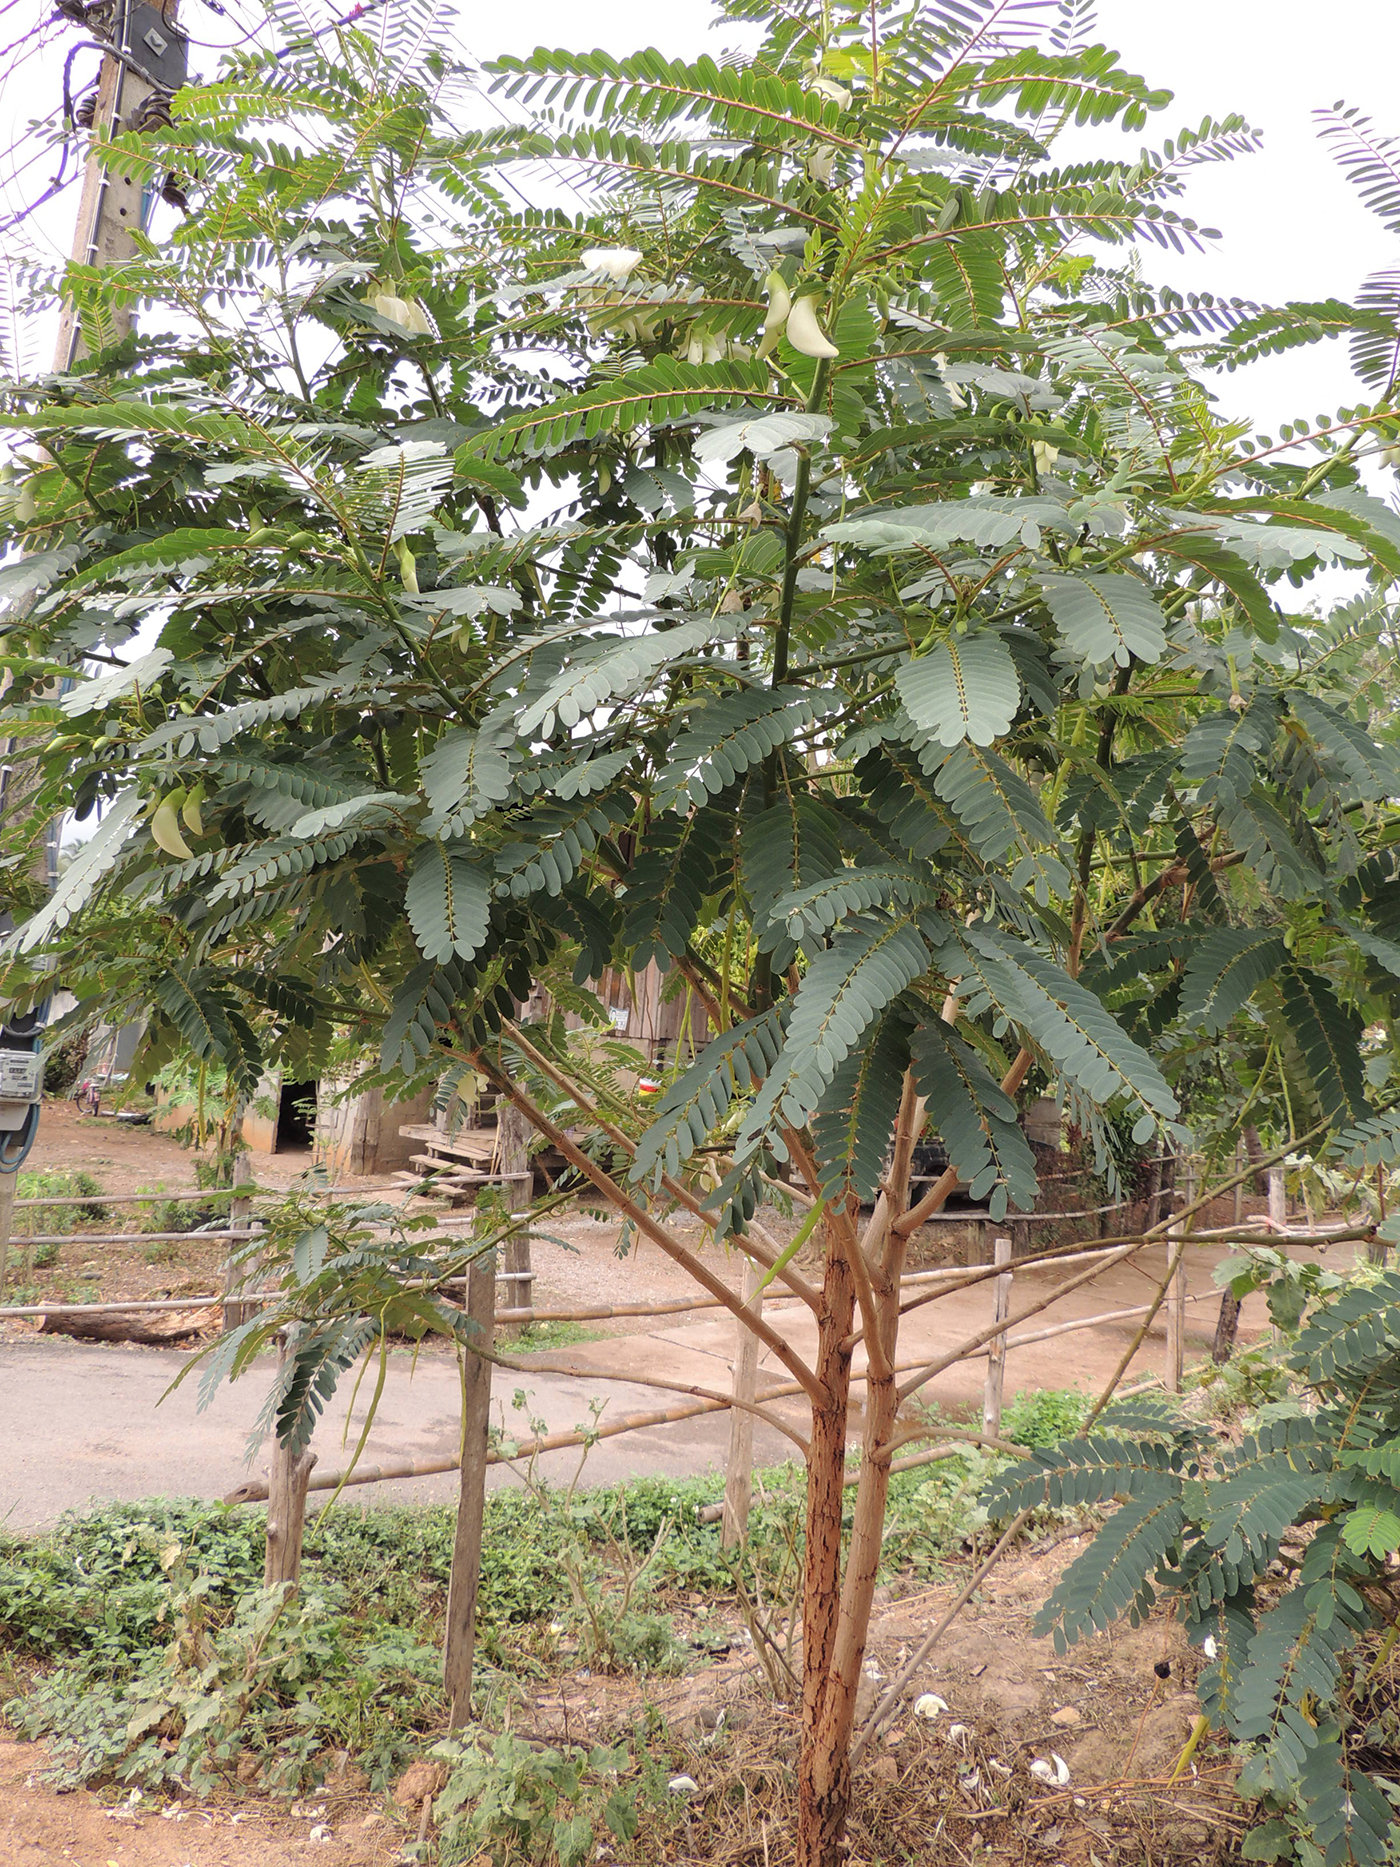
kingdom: Plantae
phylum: Tracheophyta
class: Magnoliopsida
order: Fabales
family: Fabaceae
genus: Sesbania
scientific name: Sesbania grandiflora
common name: Vegetable-hummingbird
